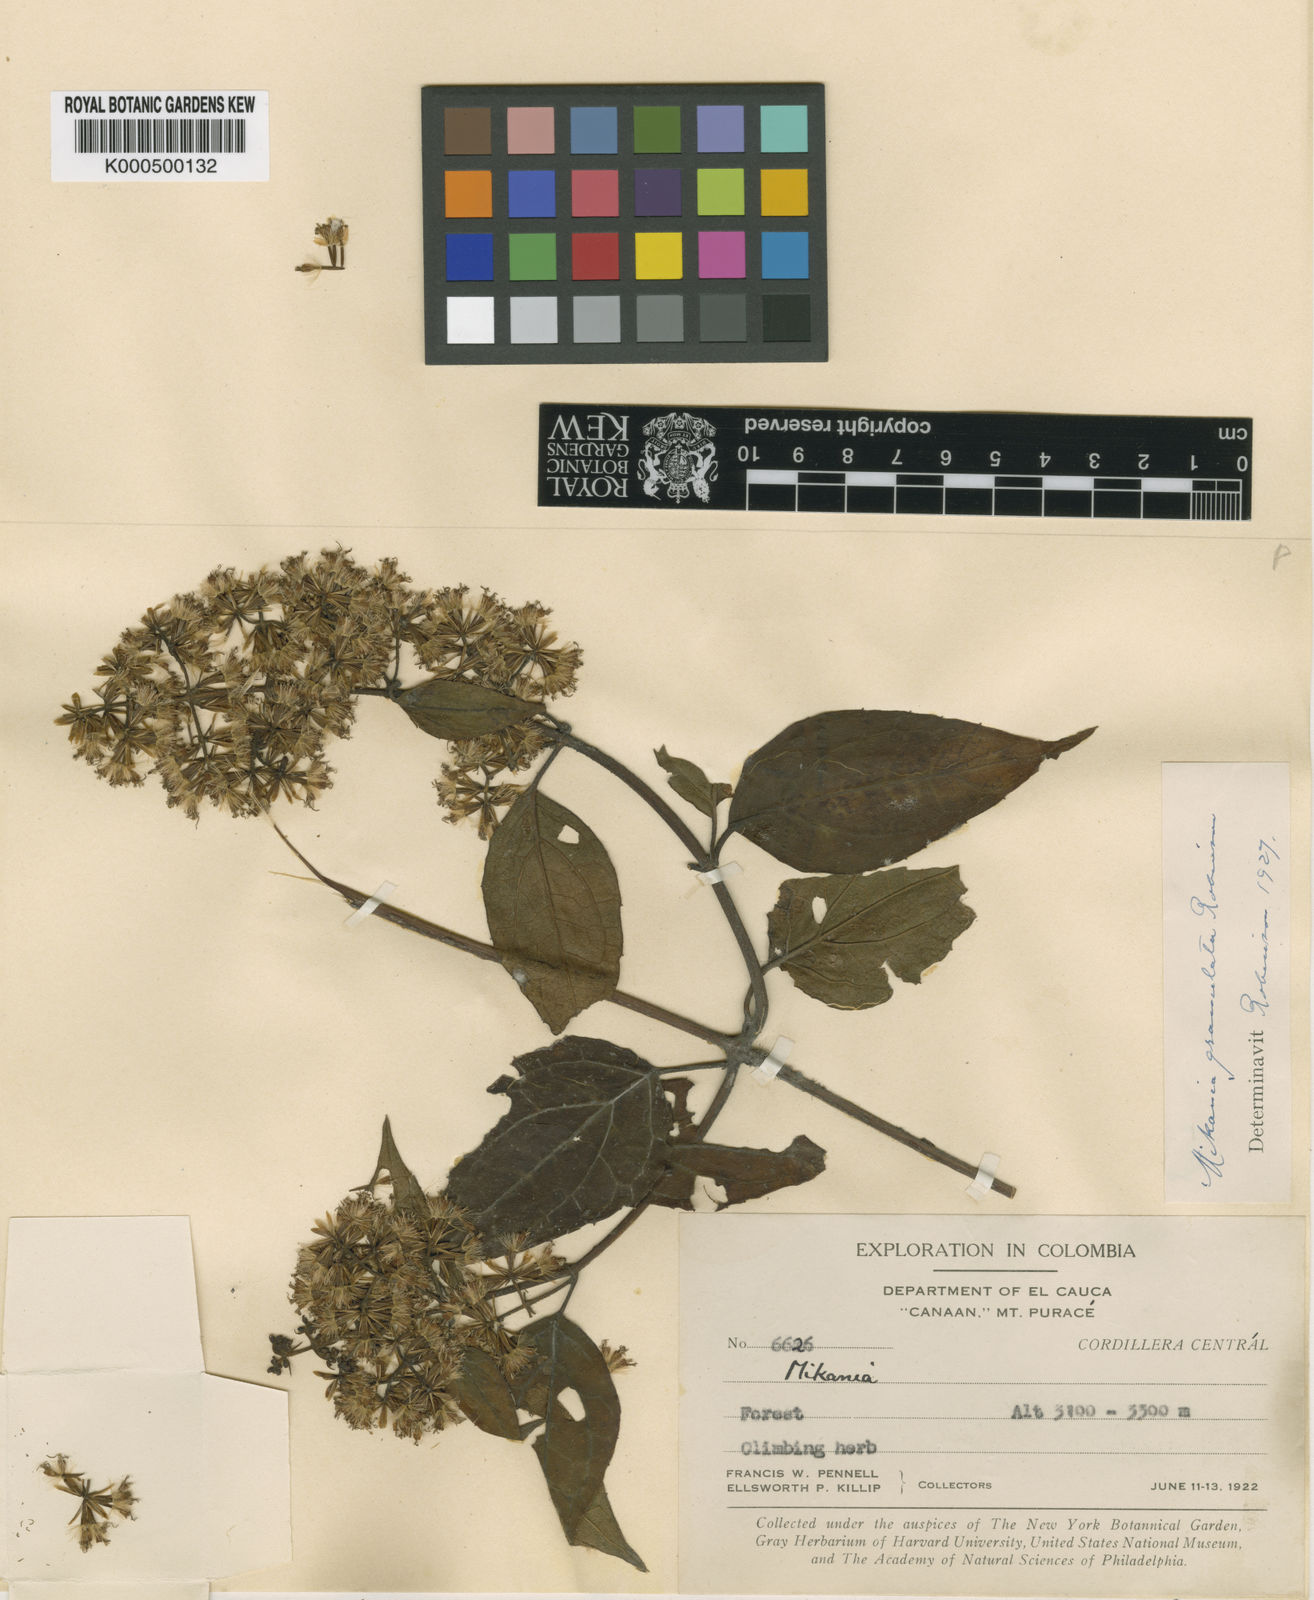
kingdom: Plantae
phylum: Tracheophyta
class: Magnoliopsida
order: Asterales
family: Asteraceae
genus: Mikania
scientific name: Mikania granulata
